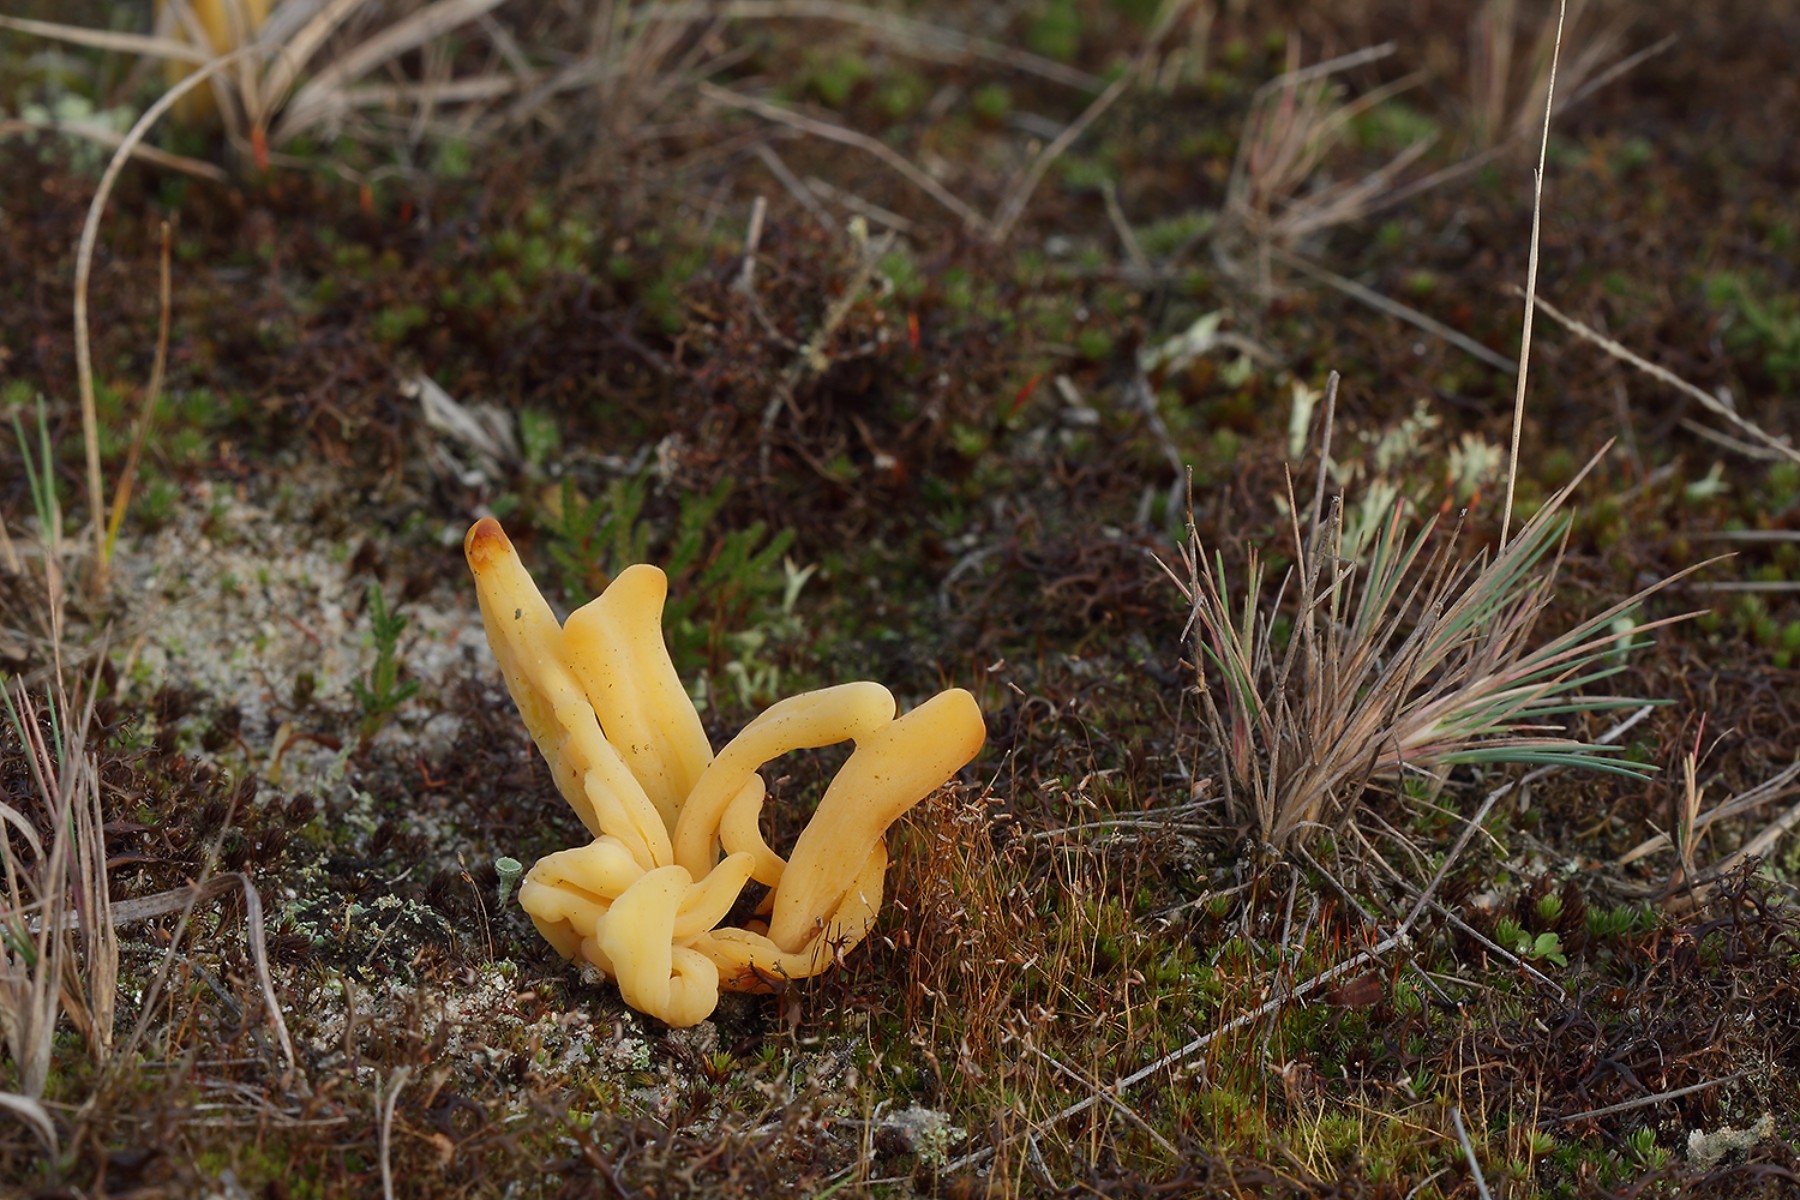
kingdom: Fungi
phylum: Basidiomycota
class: Agaricomycetes
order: Agaricales
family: Clavariaceae
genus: Clavaria
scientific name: Clavaria argillacea
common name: lerfarvet køllesvamp
